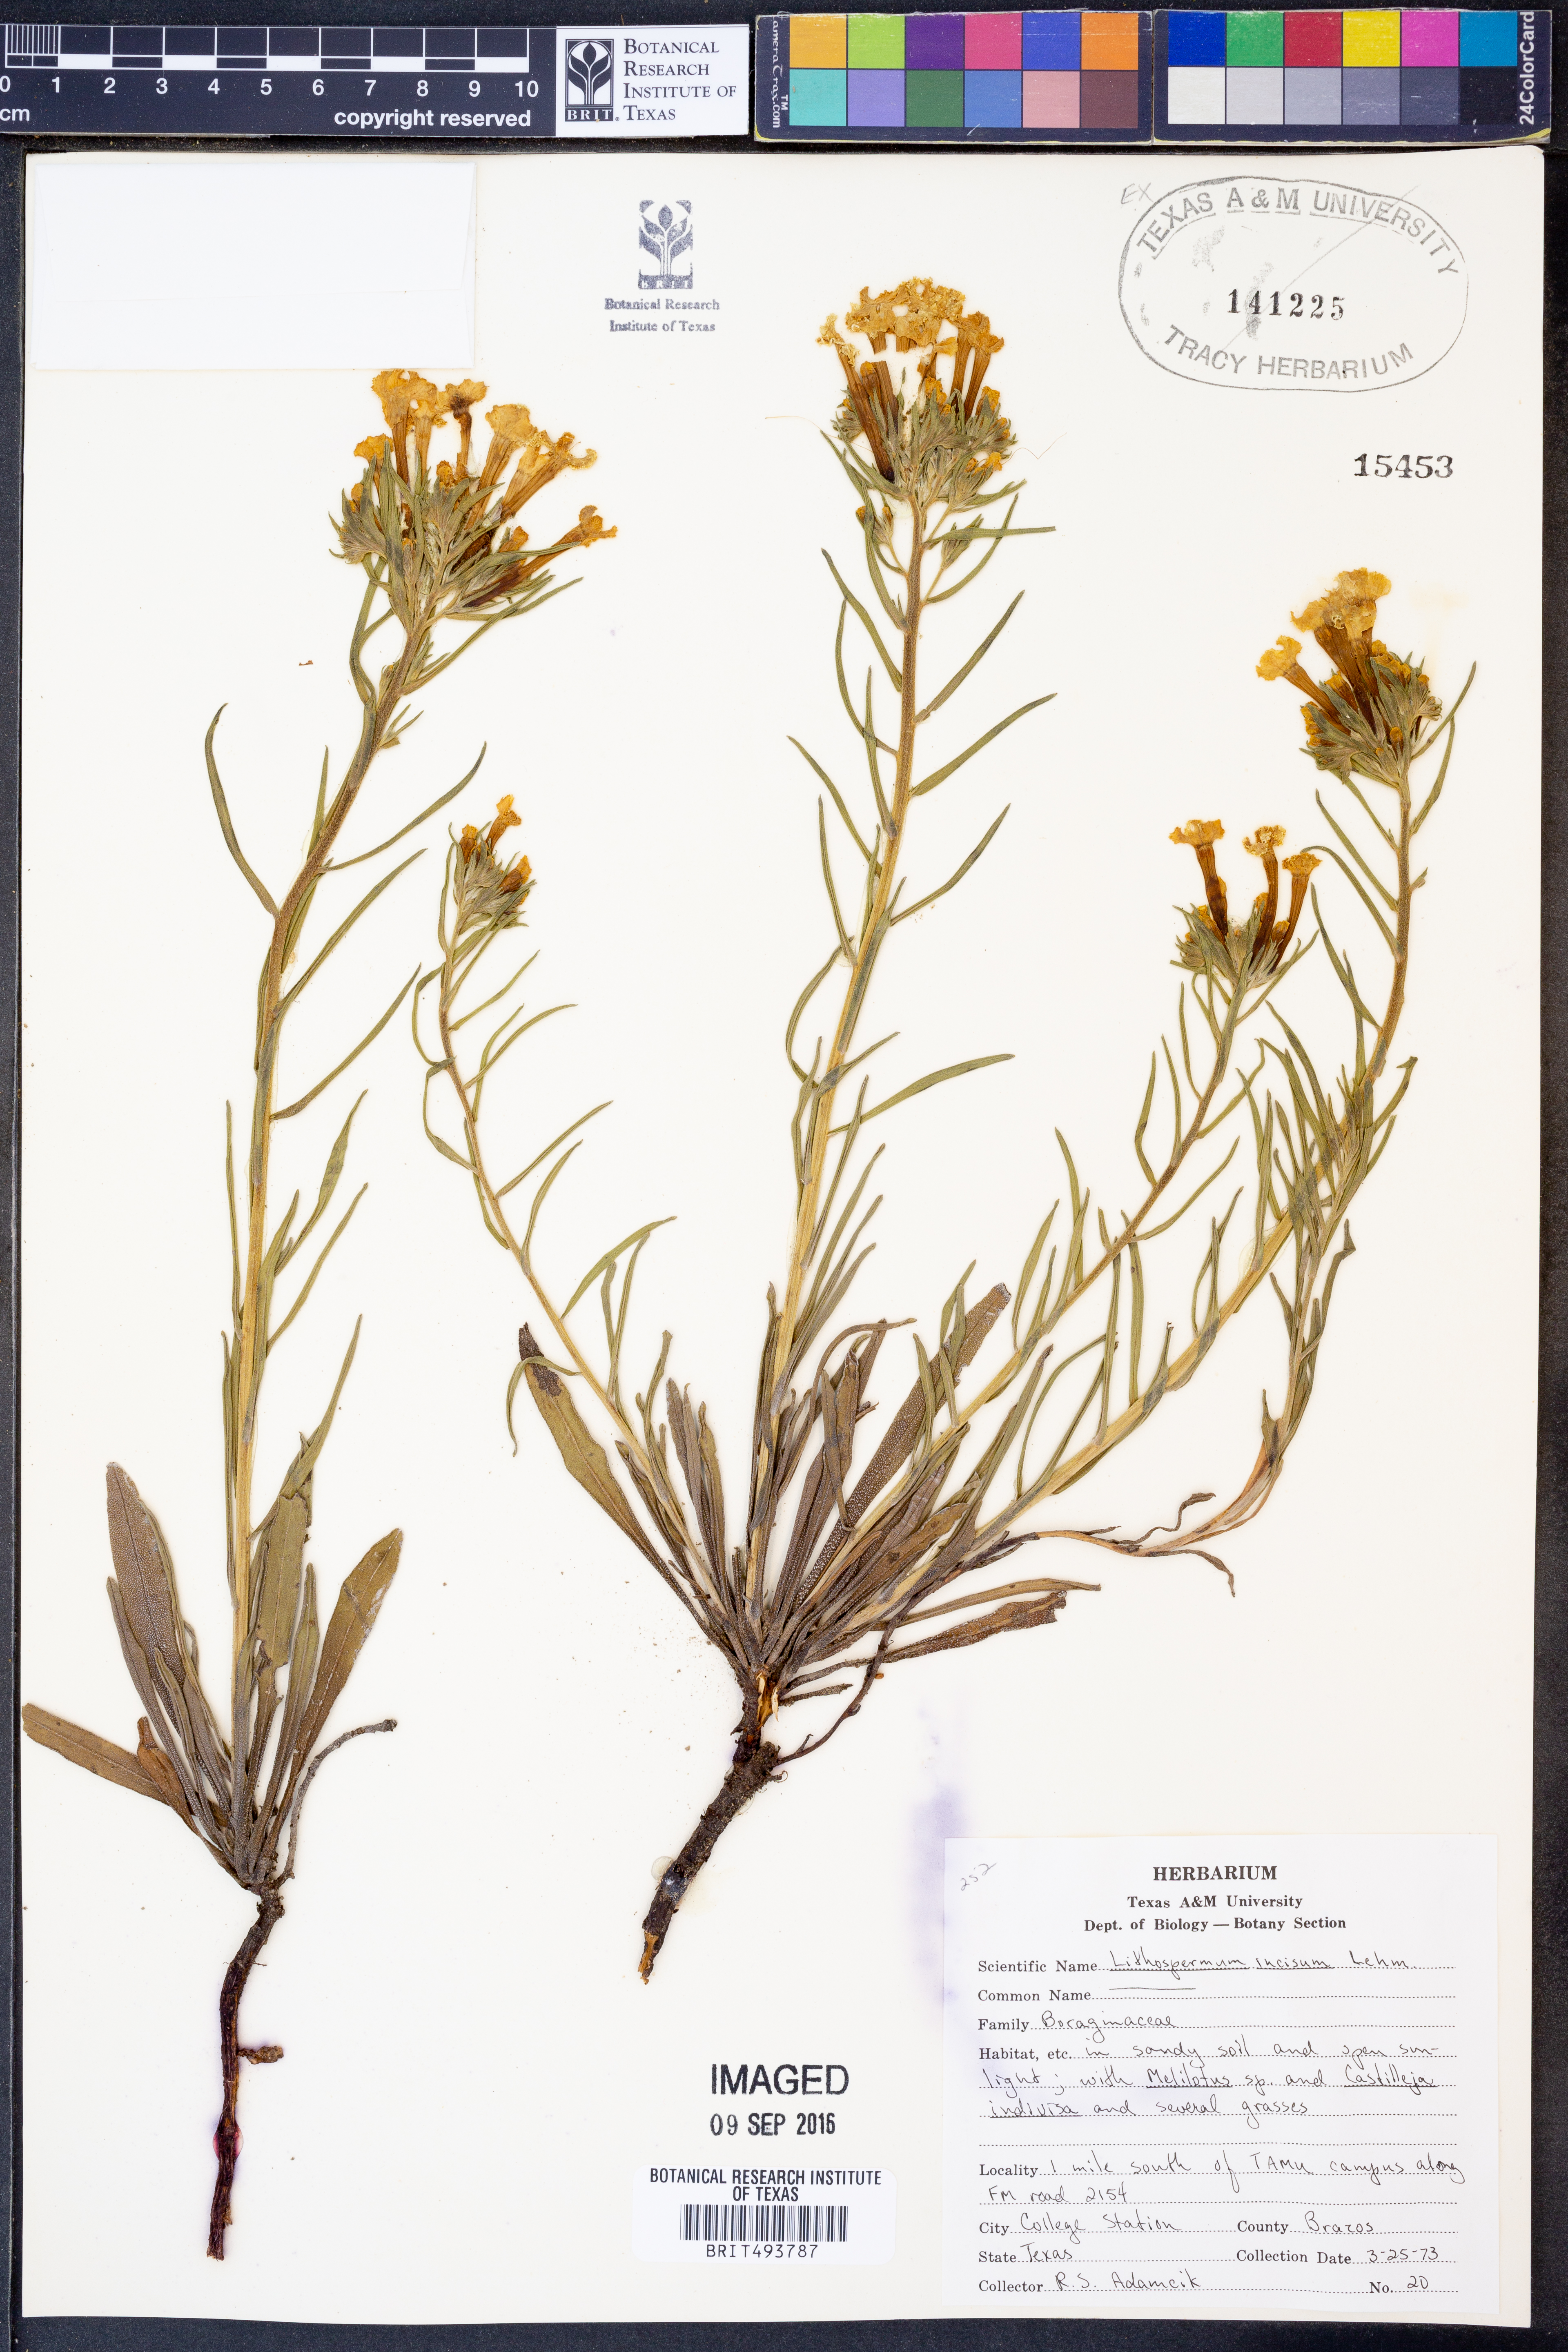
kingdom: Plantae
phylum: Tracheophyta
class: Magnoliopsida
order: Boraginales
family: Boraginaceae
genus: Lithospermum
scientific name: Lithospermum incisum
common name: Fringed gromwell
